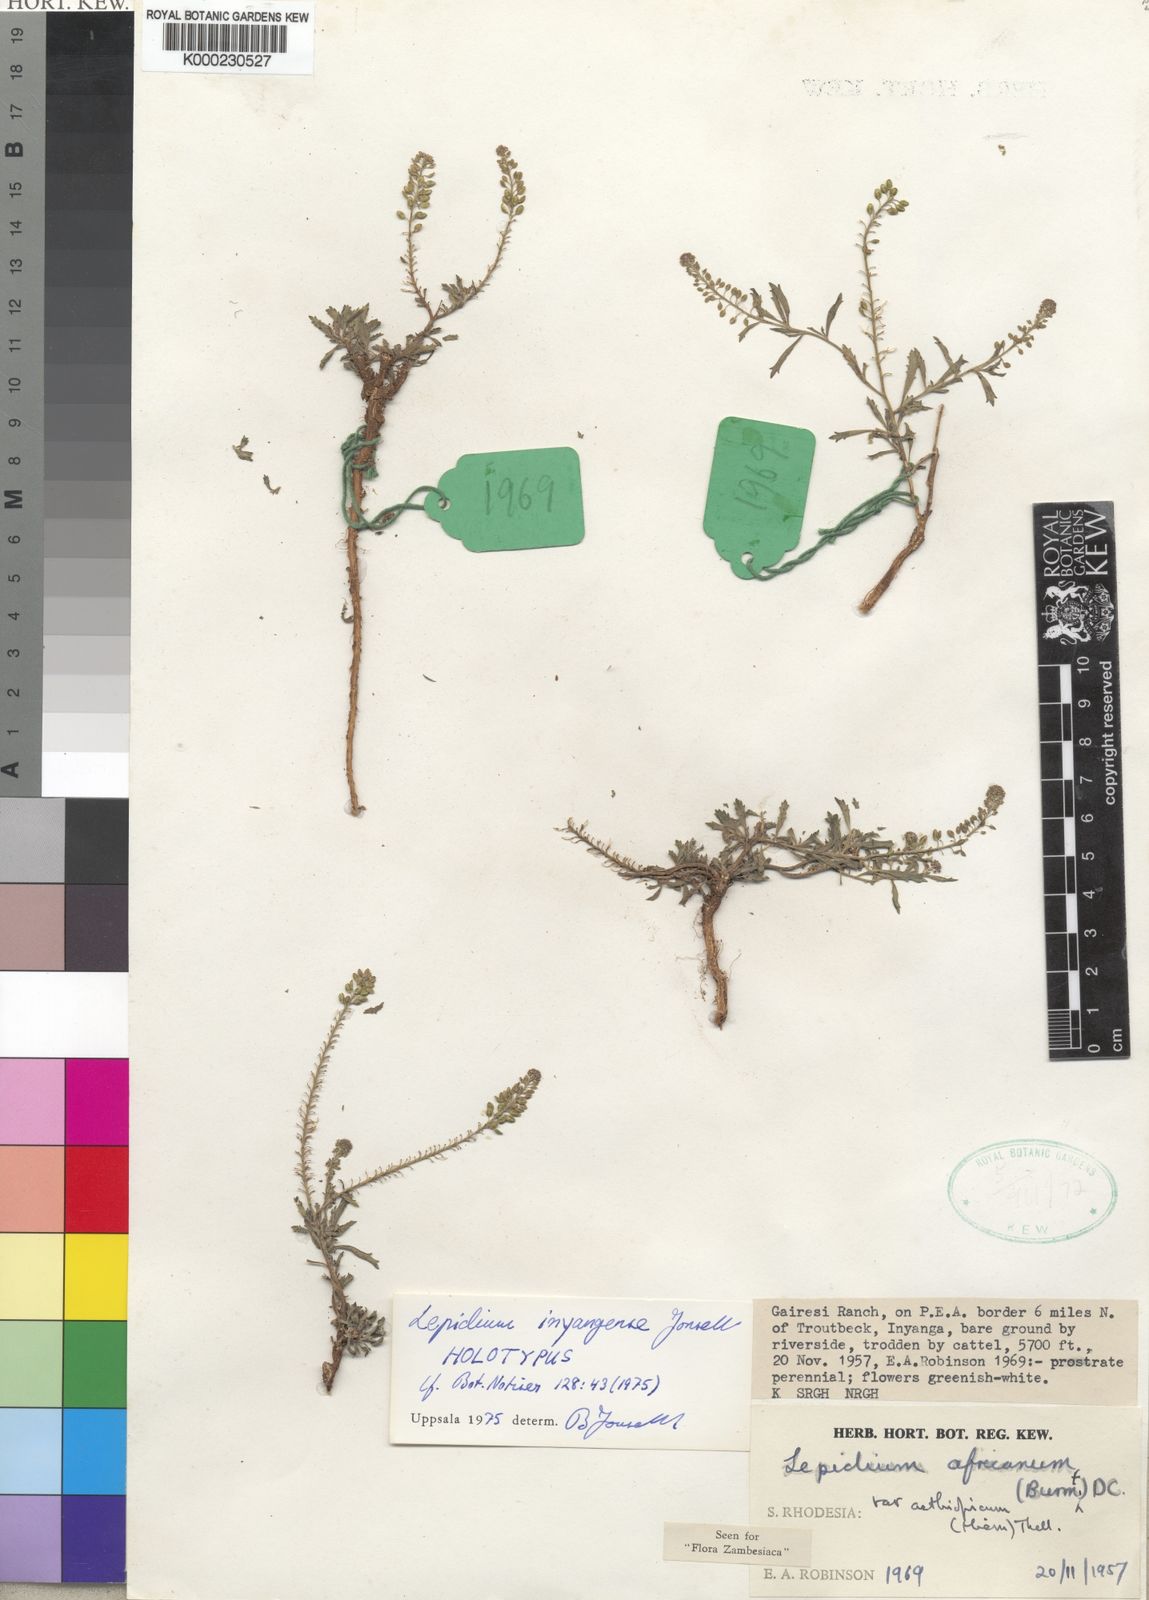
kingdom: Plantae
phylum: Tracheophyta
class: Magnoliopsida
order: Brassicales
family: Brassicaceae
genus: Lepidium
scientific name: Lepidium inyangense
